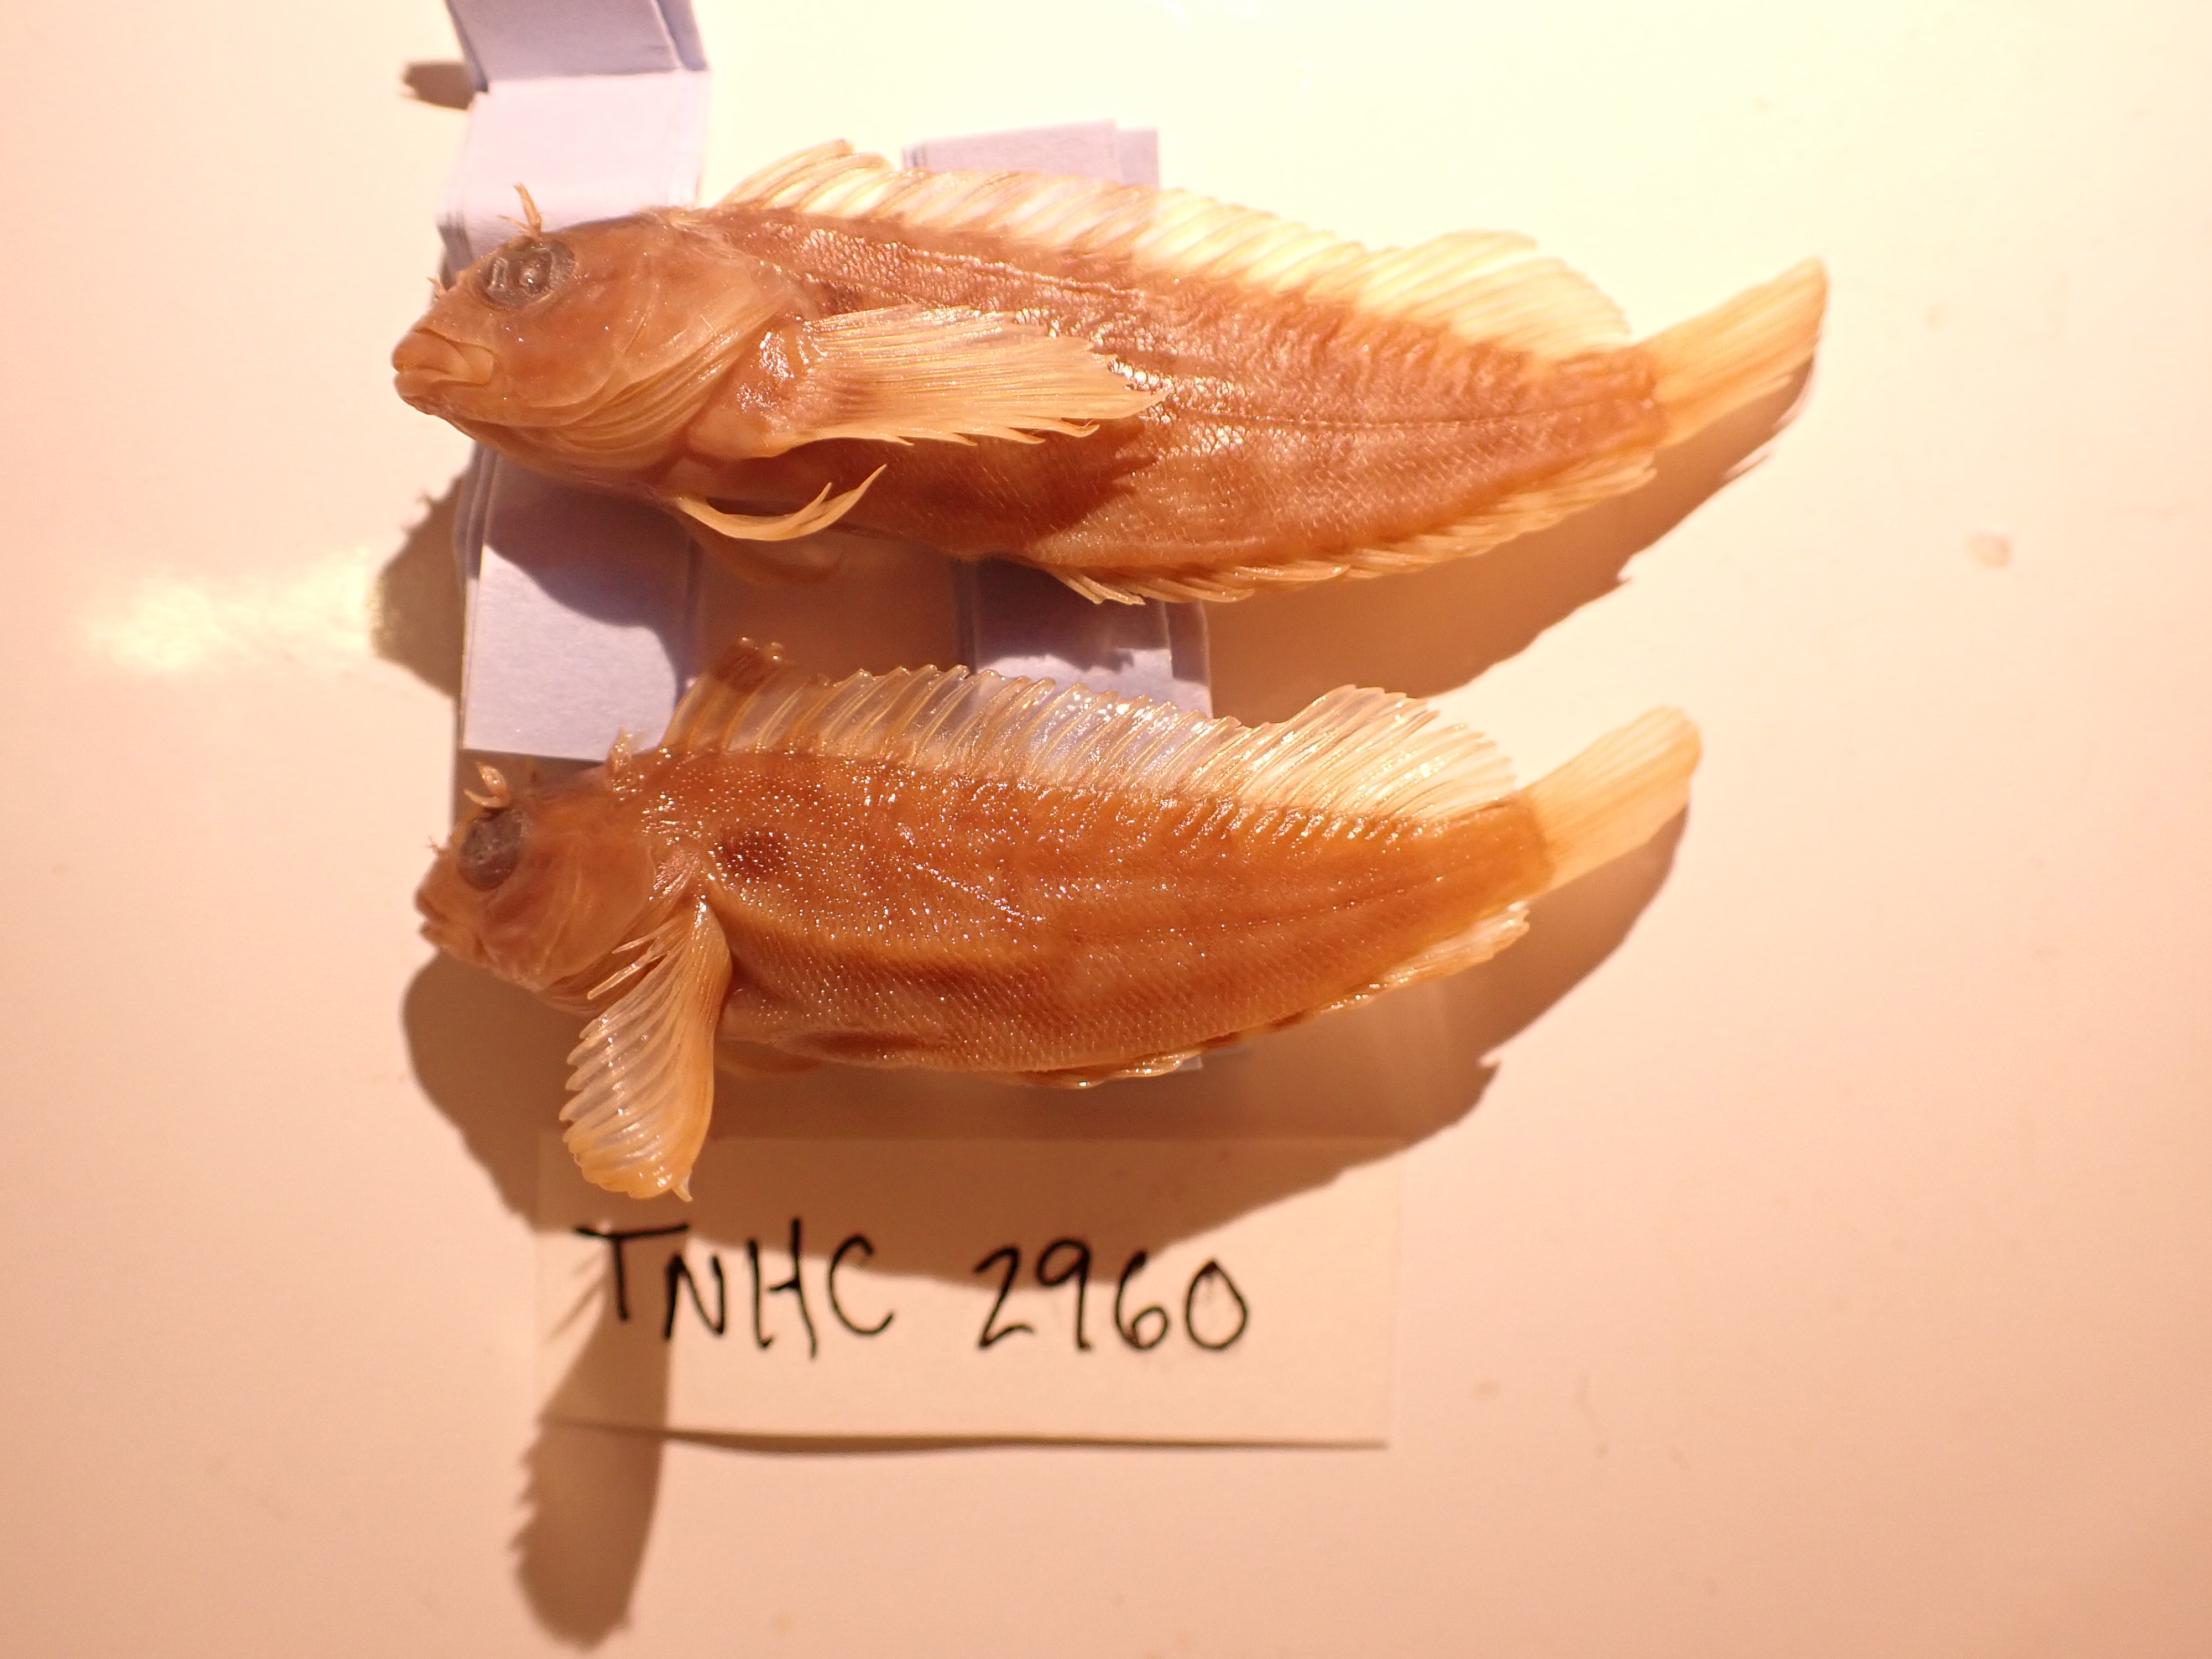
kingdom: Animalia
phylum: Chordata
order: Perciformes
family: Labrisomidae
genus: Labrisomus
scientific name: Labrisomus wigginsi
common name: Baja blenny
